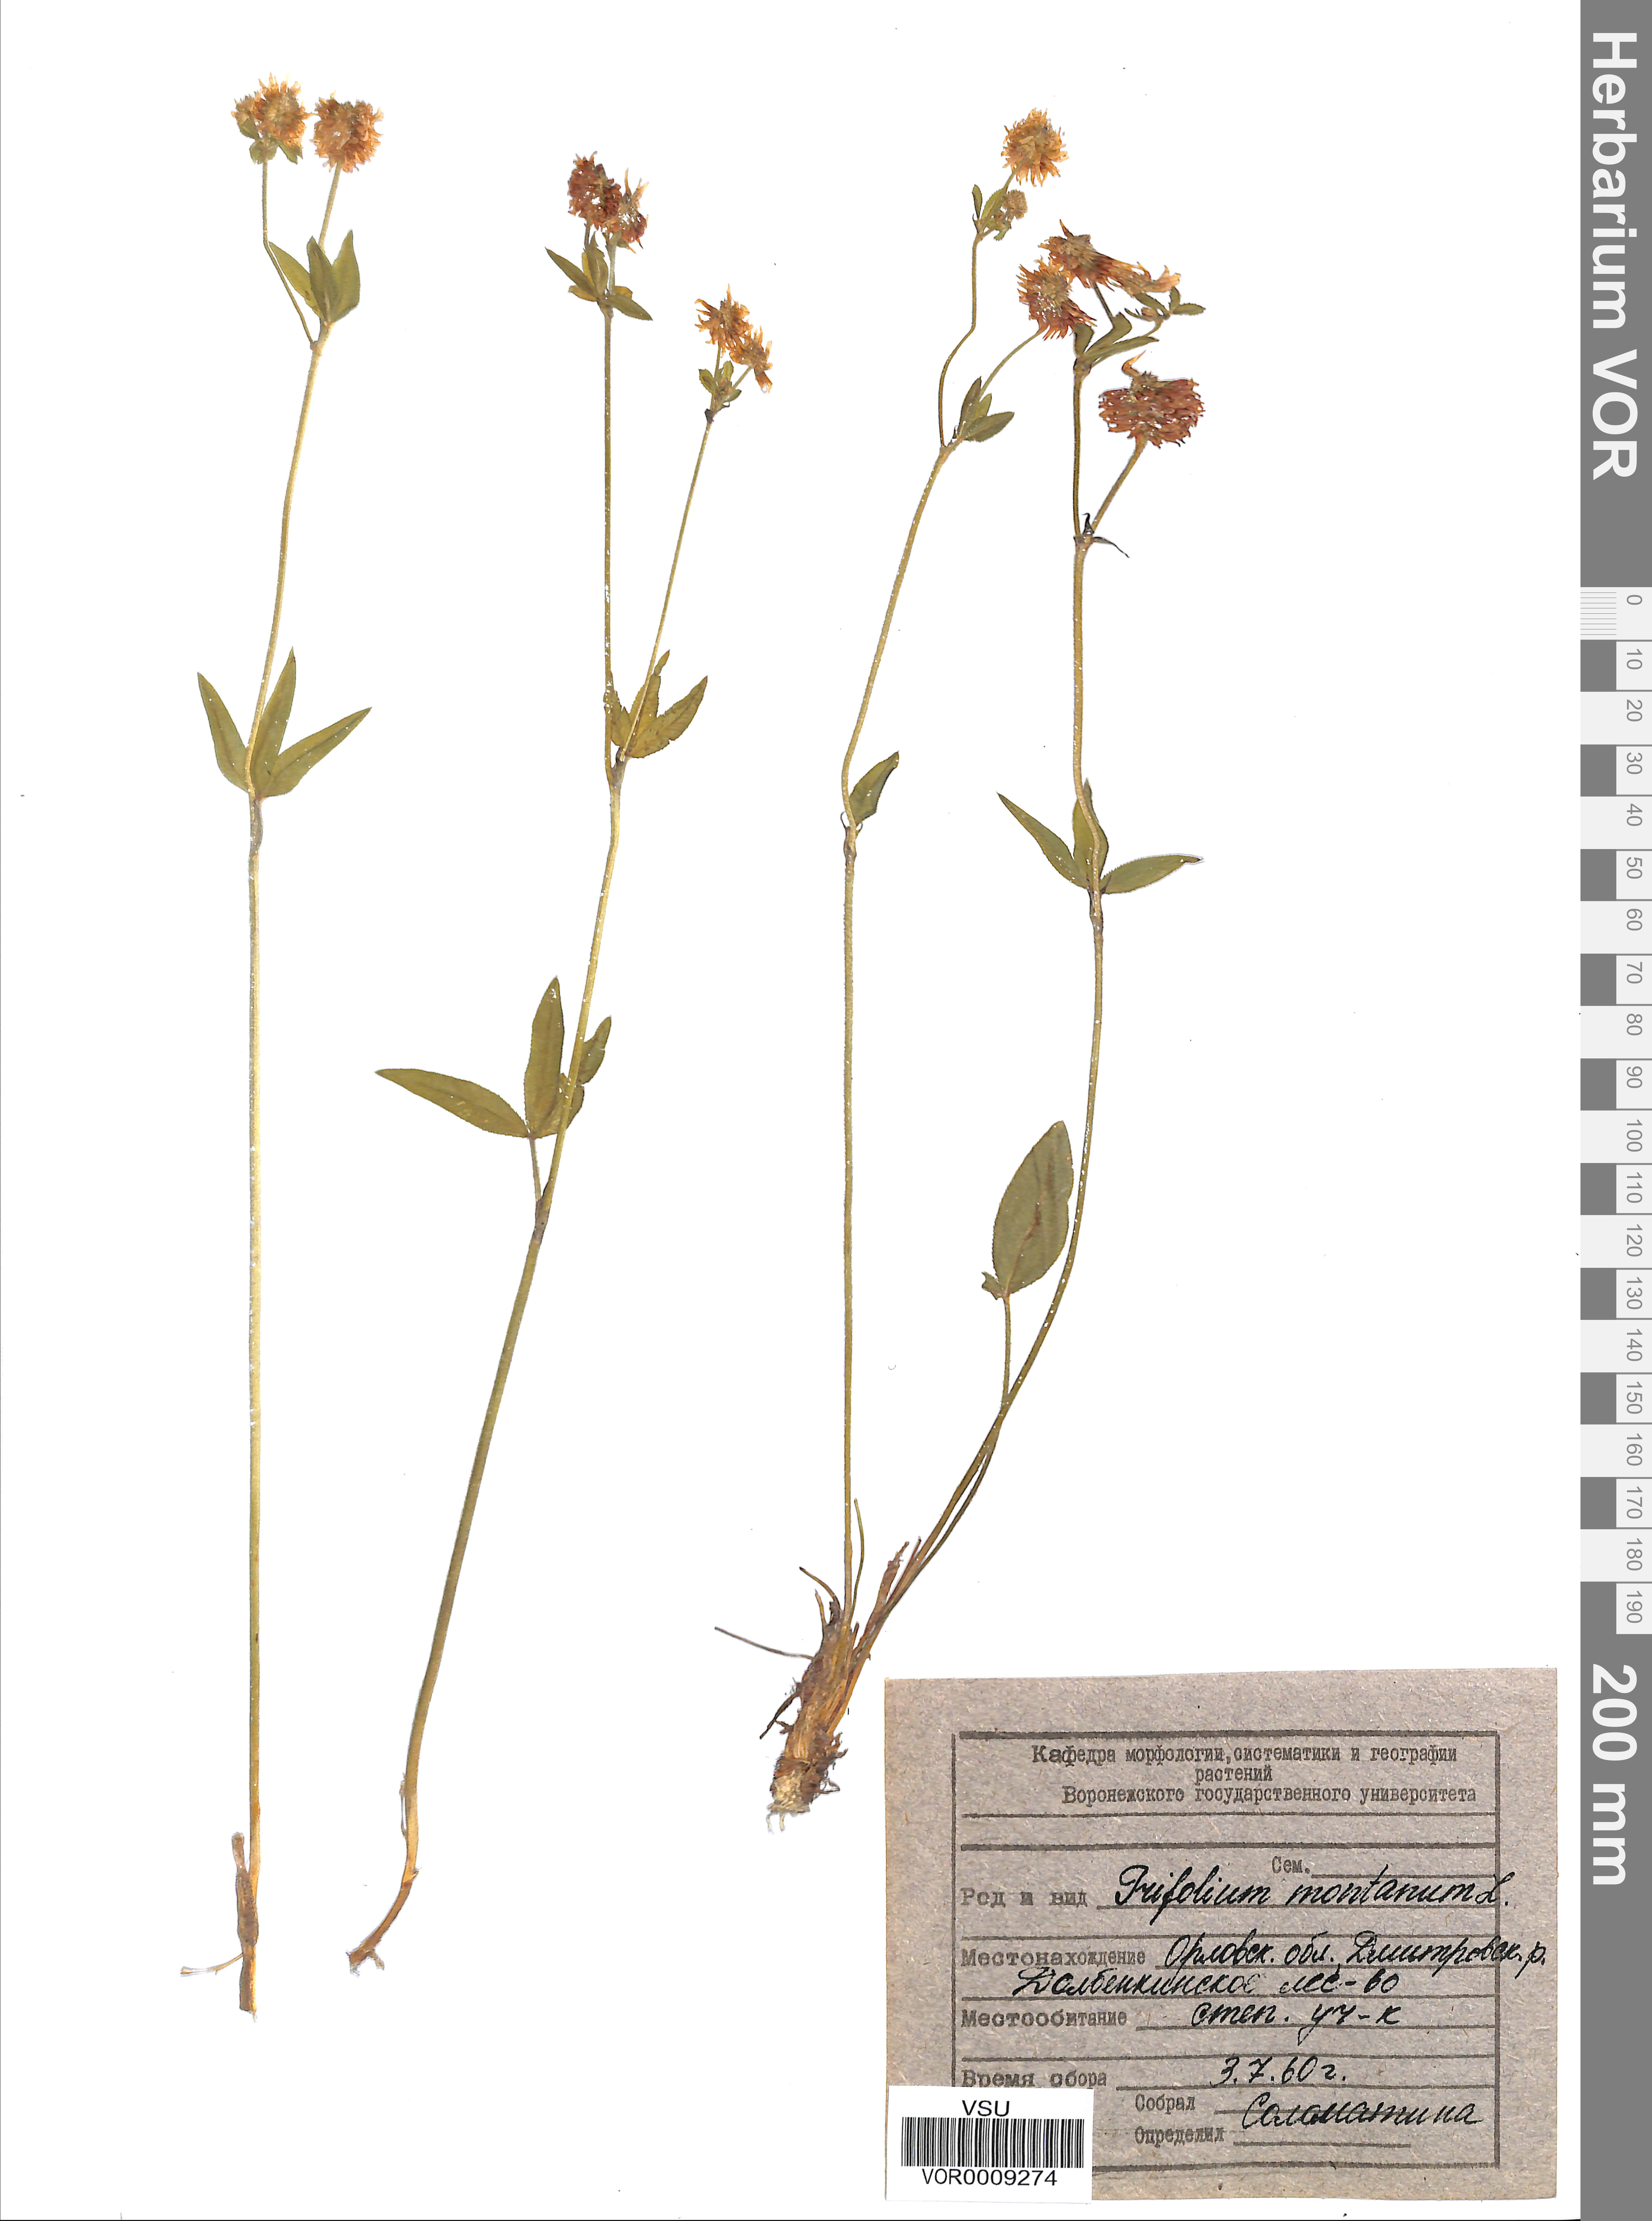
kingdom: Plantae
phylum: Tracheophyta
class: Magnoliopsida
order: Fabales
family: Fabaceae
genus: Trifolium
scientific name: Trifolium montanum
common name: Mountain clover
